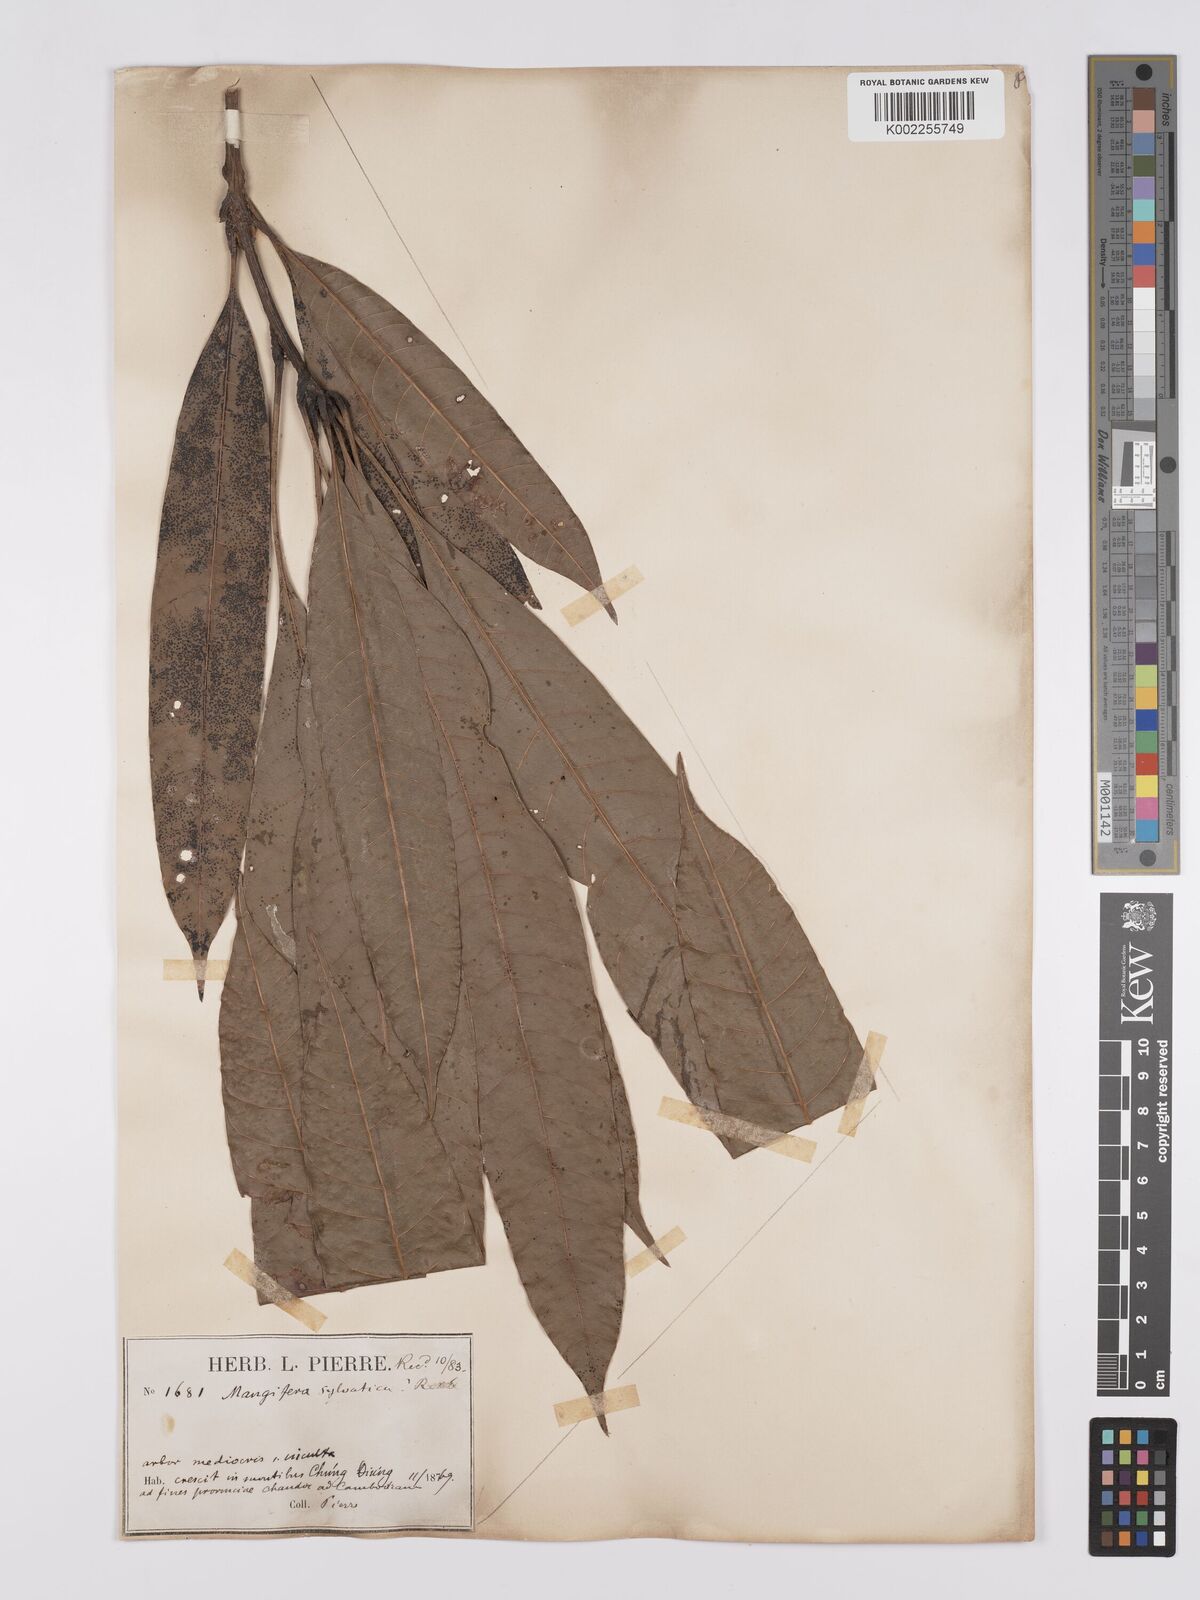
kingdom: Plantae
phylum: Tracheophyta
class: Magnoliopsida
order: Sapindales
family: Anacardiaceae
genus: Mangifera
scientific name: Mangifera sylvatica
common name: Nepal mango
